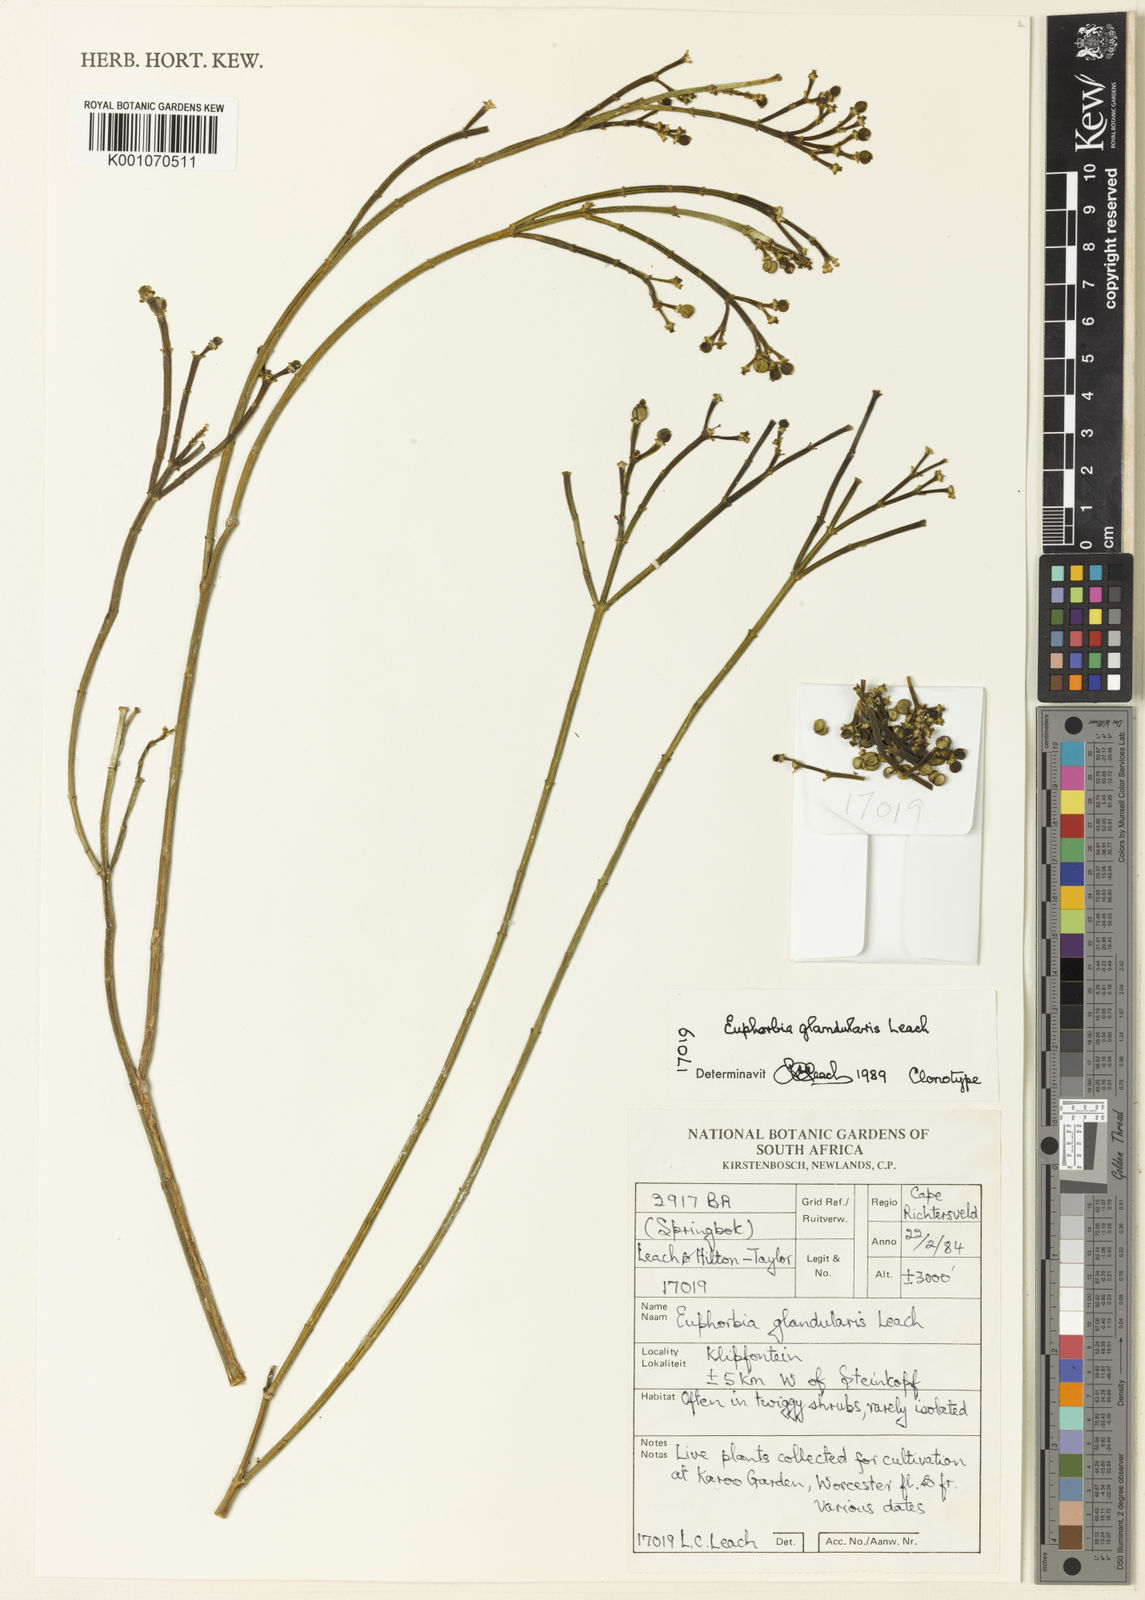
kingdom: Plantae
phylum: Tracheophyta
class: Magnoliopsida
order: Malpighiales
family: Euphorbiaceae
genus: Euphorbia
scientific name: Euphorbia exilis
